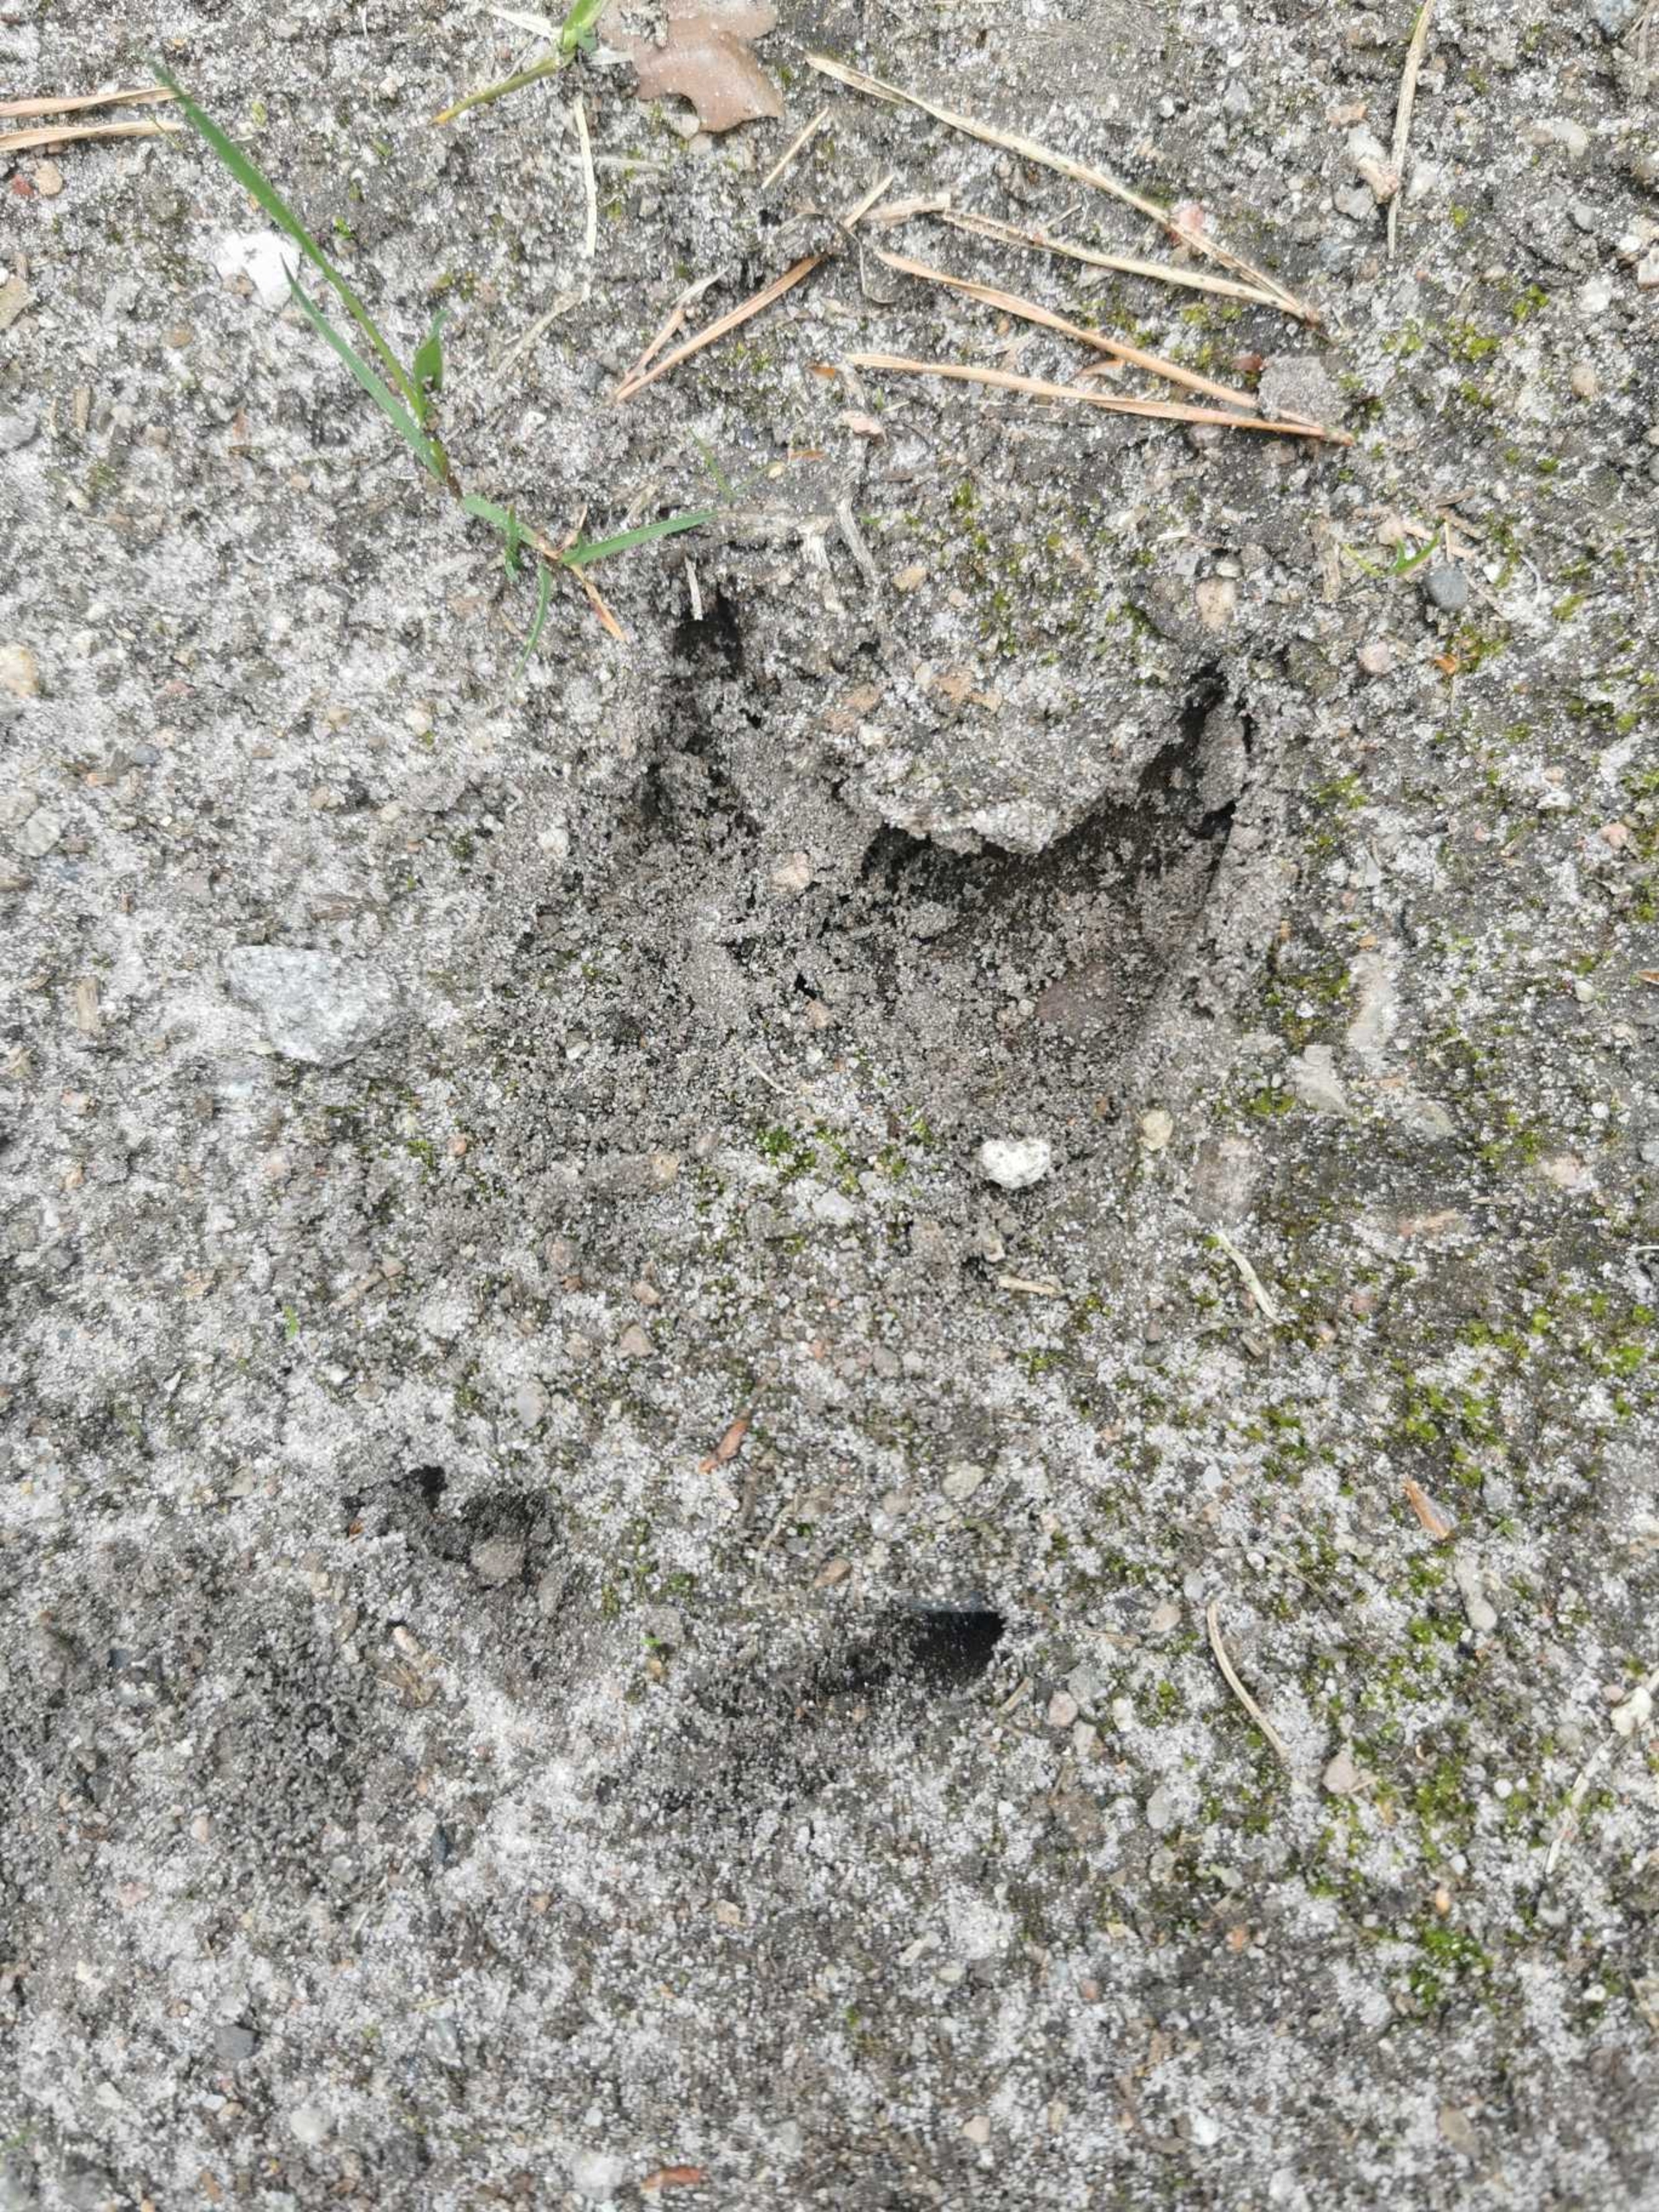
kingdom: Animalia
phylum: Chordata
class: Mammalia
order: Artiodactyla
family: Cervidae
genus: Cervus
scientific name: Cervus elaphus
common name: Krondyr
